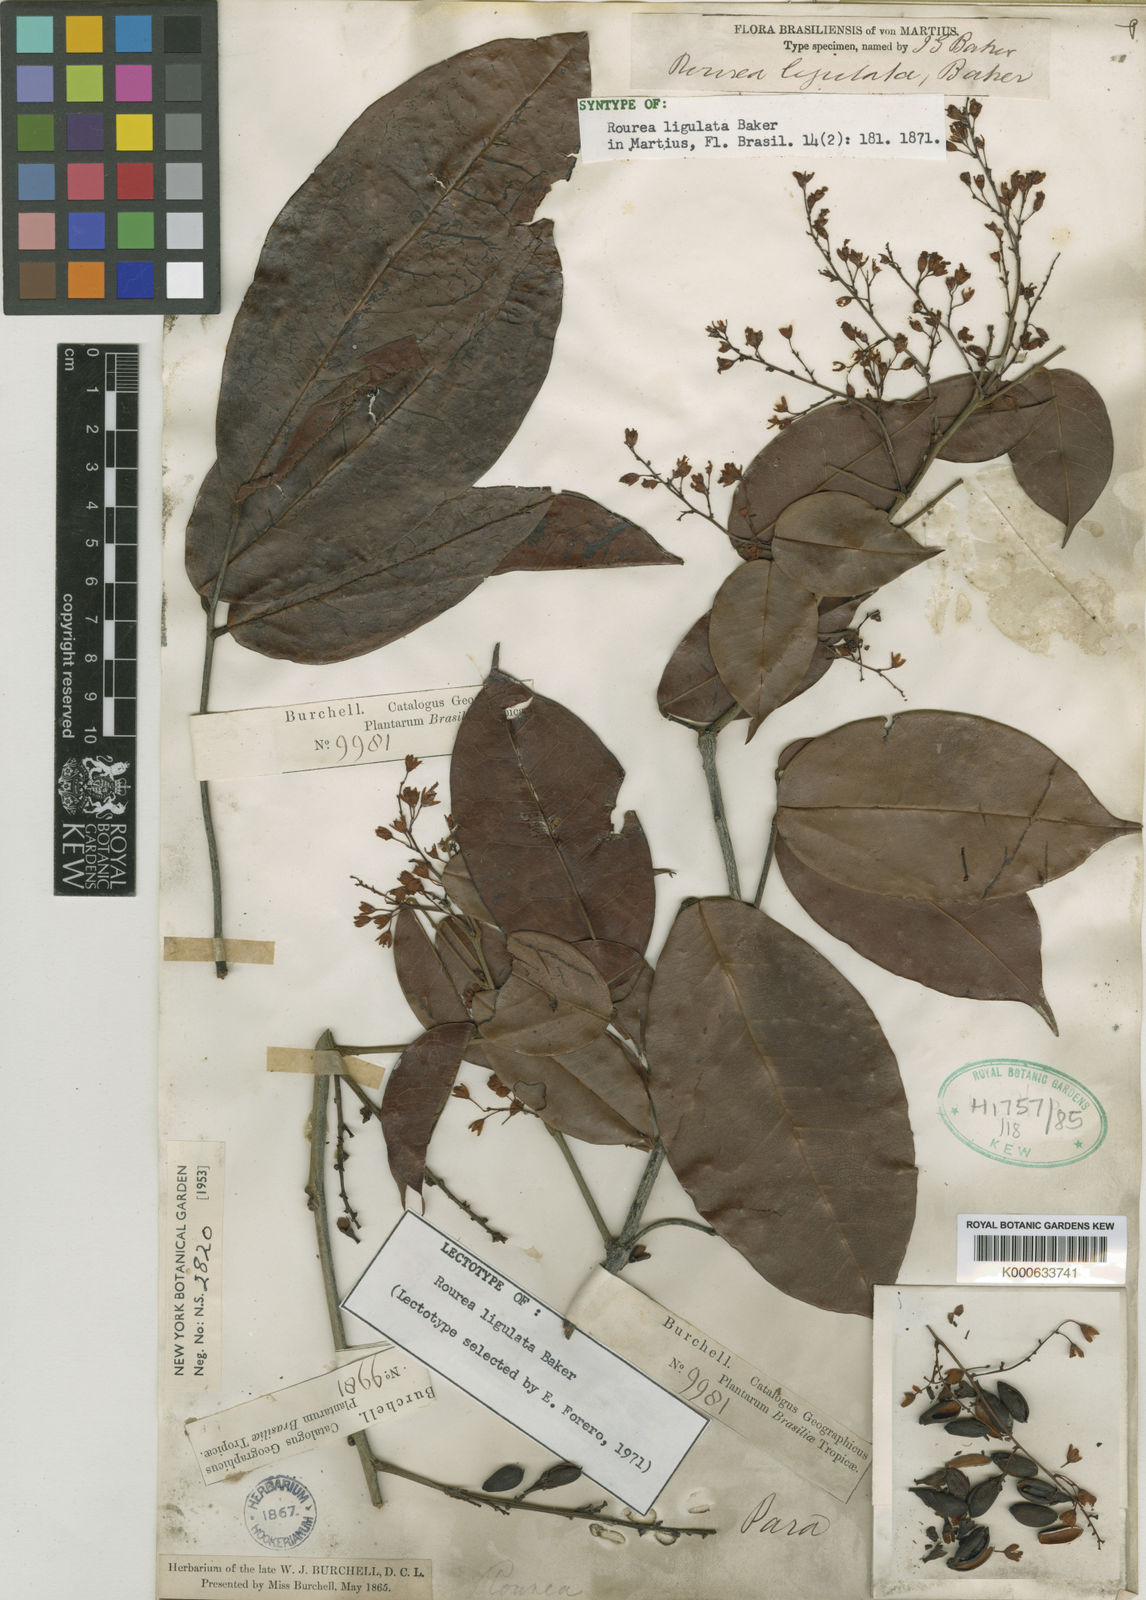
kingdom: Plantae
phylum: Tracheophyta
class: Magnoliopsida
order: Oxalidales
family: Connaraceae
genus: Rourea
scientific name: Rourea ligulata
